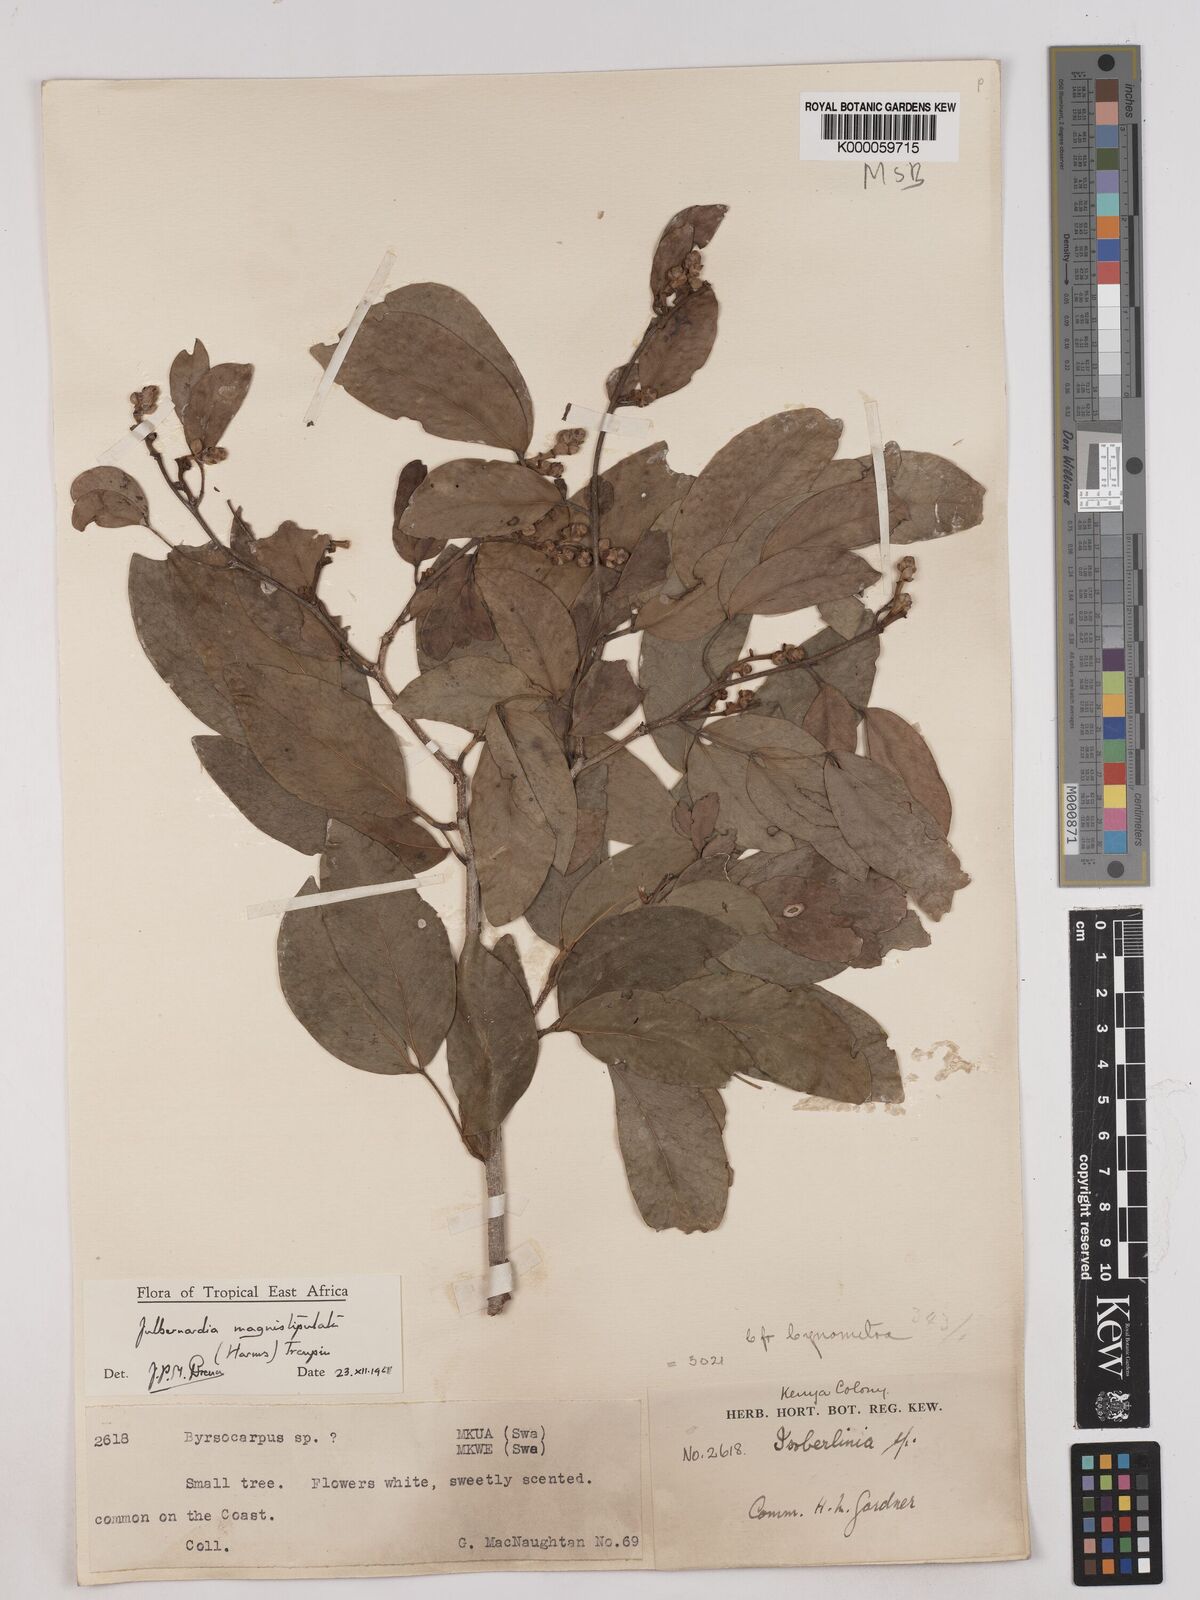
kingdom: Plantae
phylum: Tracheophyta
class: Magnoliopsida
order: Fabales
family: Fabaceae
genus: Julbernardia
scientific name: Julbernardia magnistipulata
